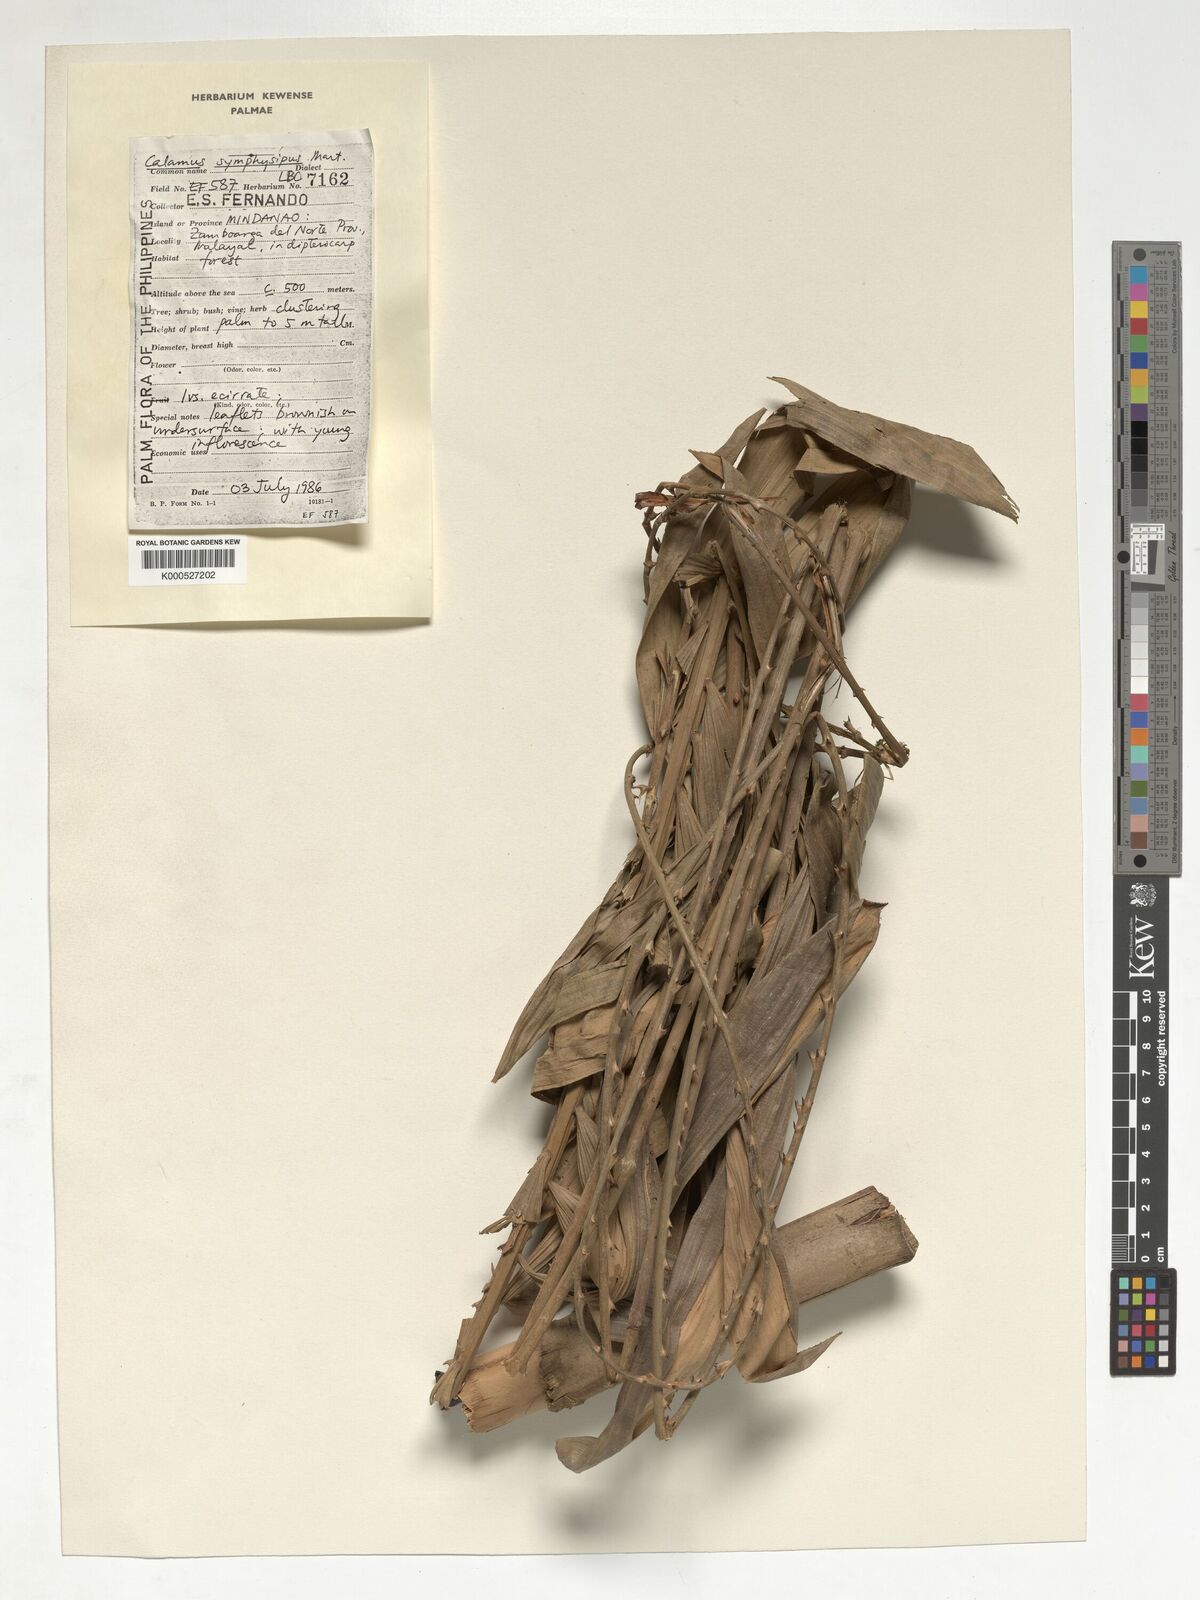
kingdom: Plantae
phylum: Tracheophyta
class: Liliopsida
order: Arecales
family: Arecaceae
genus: Calamus
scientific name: Calamus symphysipus
